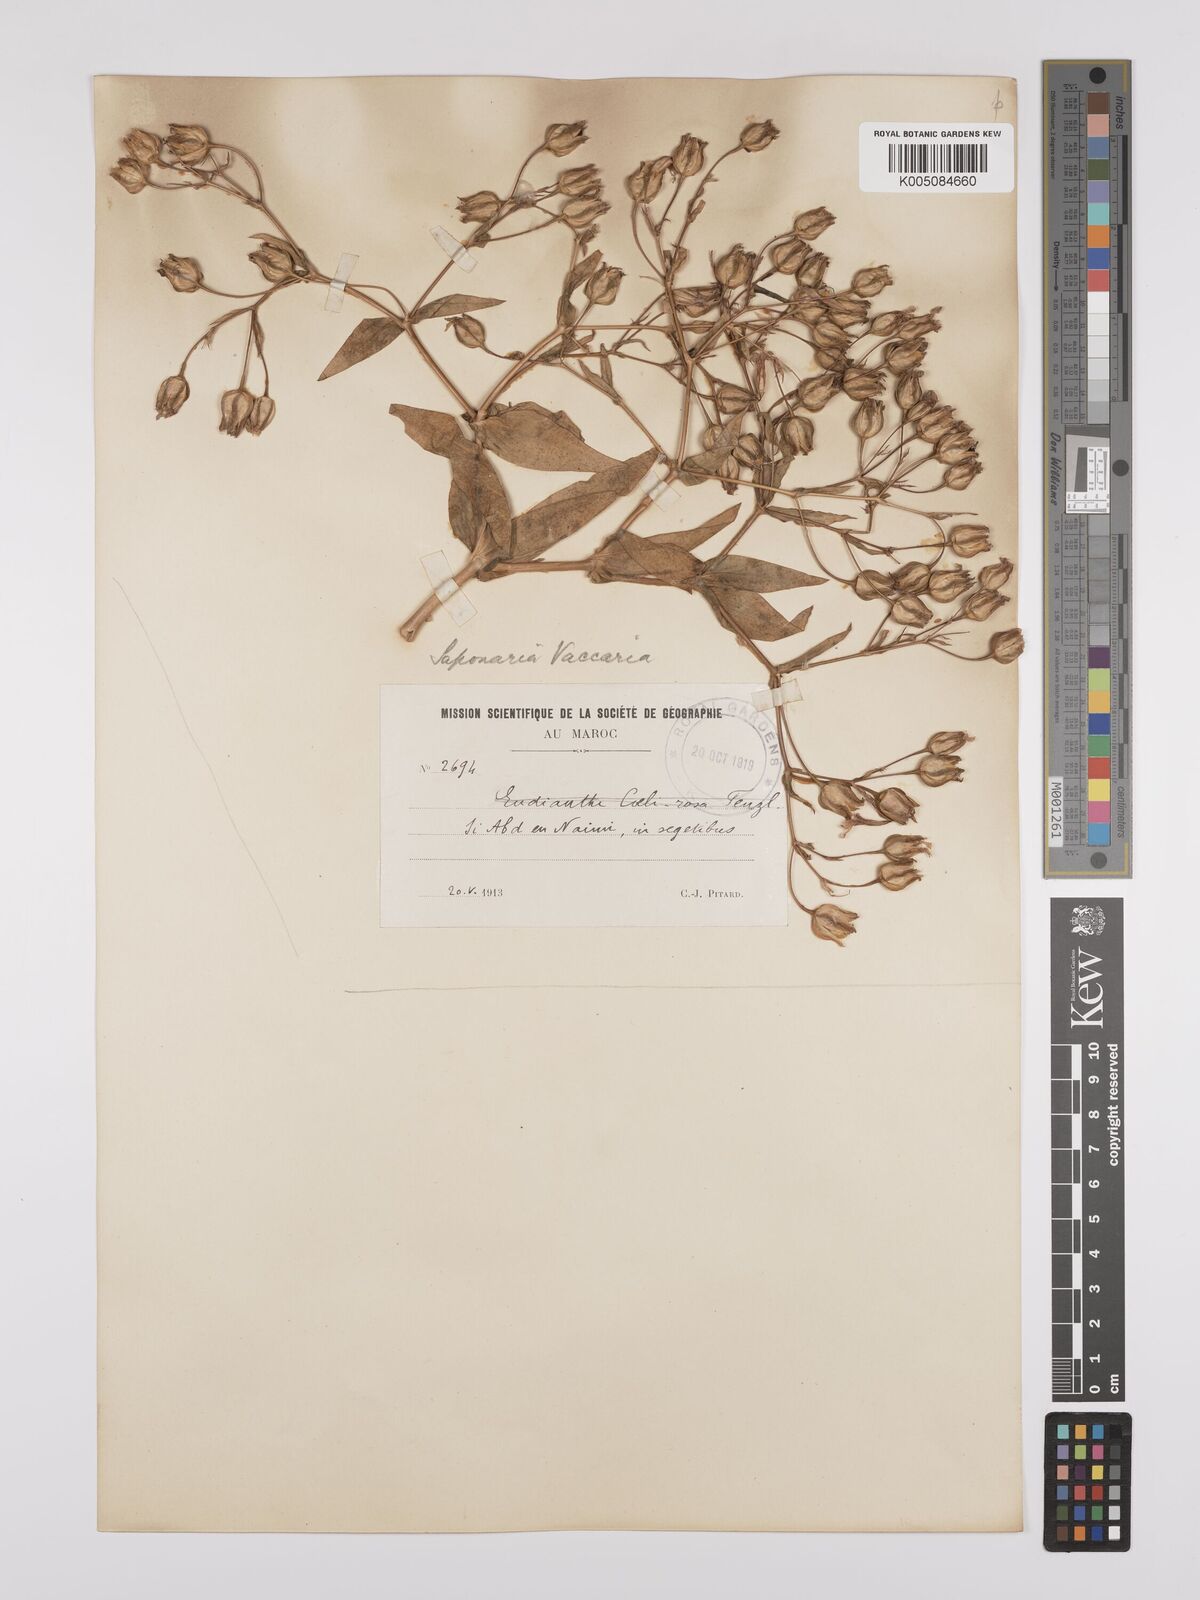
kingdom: Plantae
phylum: Tracheophyta
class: Magnoliopsida
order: Caryophyllales
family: Caryophyllaceae
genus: Gypsophila
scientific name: Gypsophila vaccaria
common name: Cow soapwort
